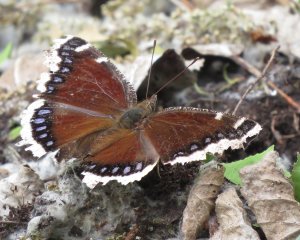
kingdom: Animalia
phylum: Arthropoda
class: Insecta
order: Lepidoptera
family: Nymphalidae
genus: Nymphalis
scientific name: Nymphalis antiopa
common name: Mourning Cloak
